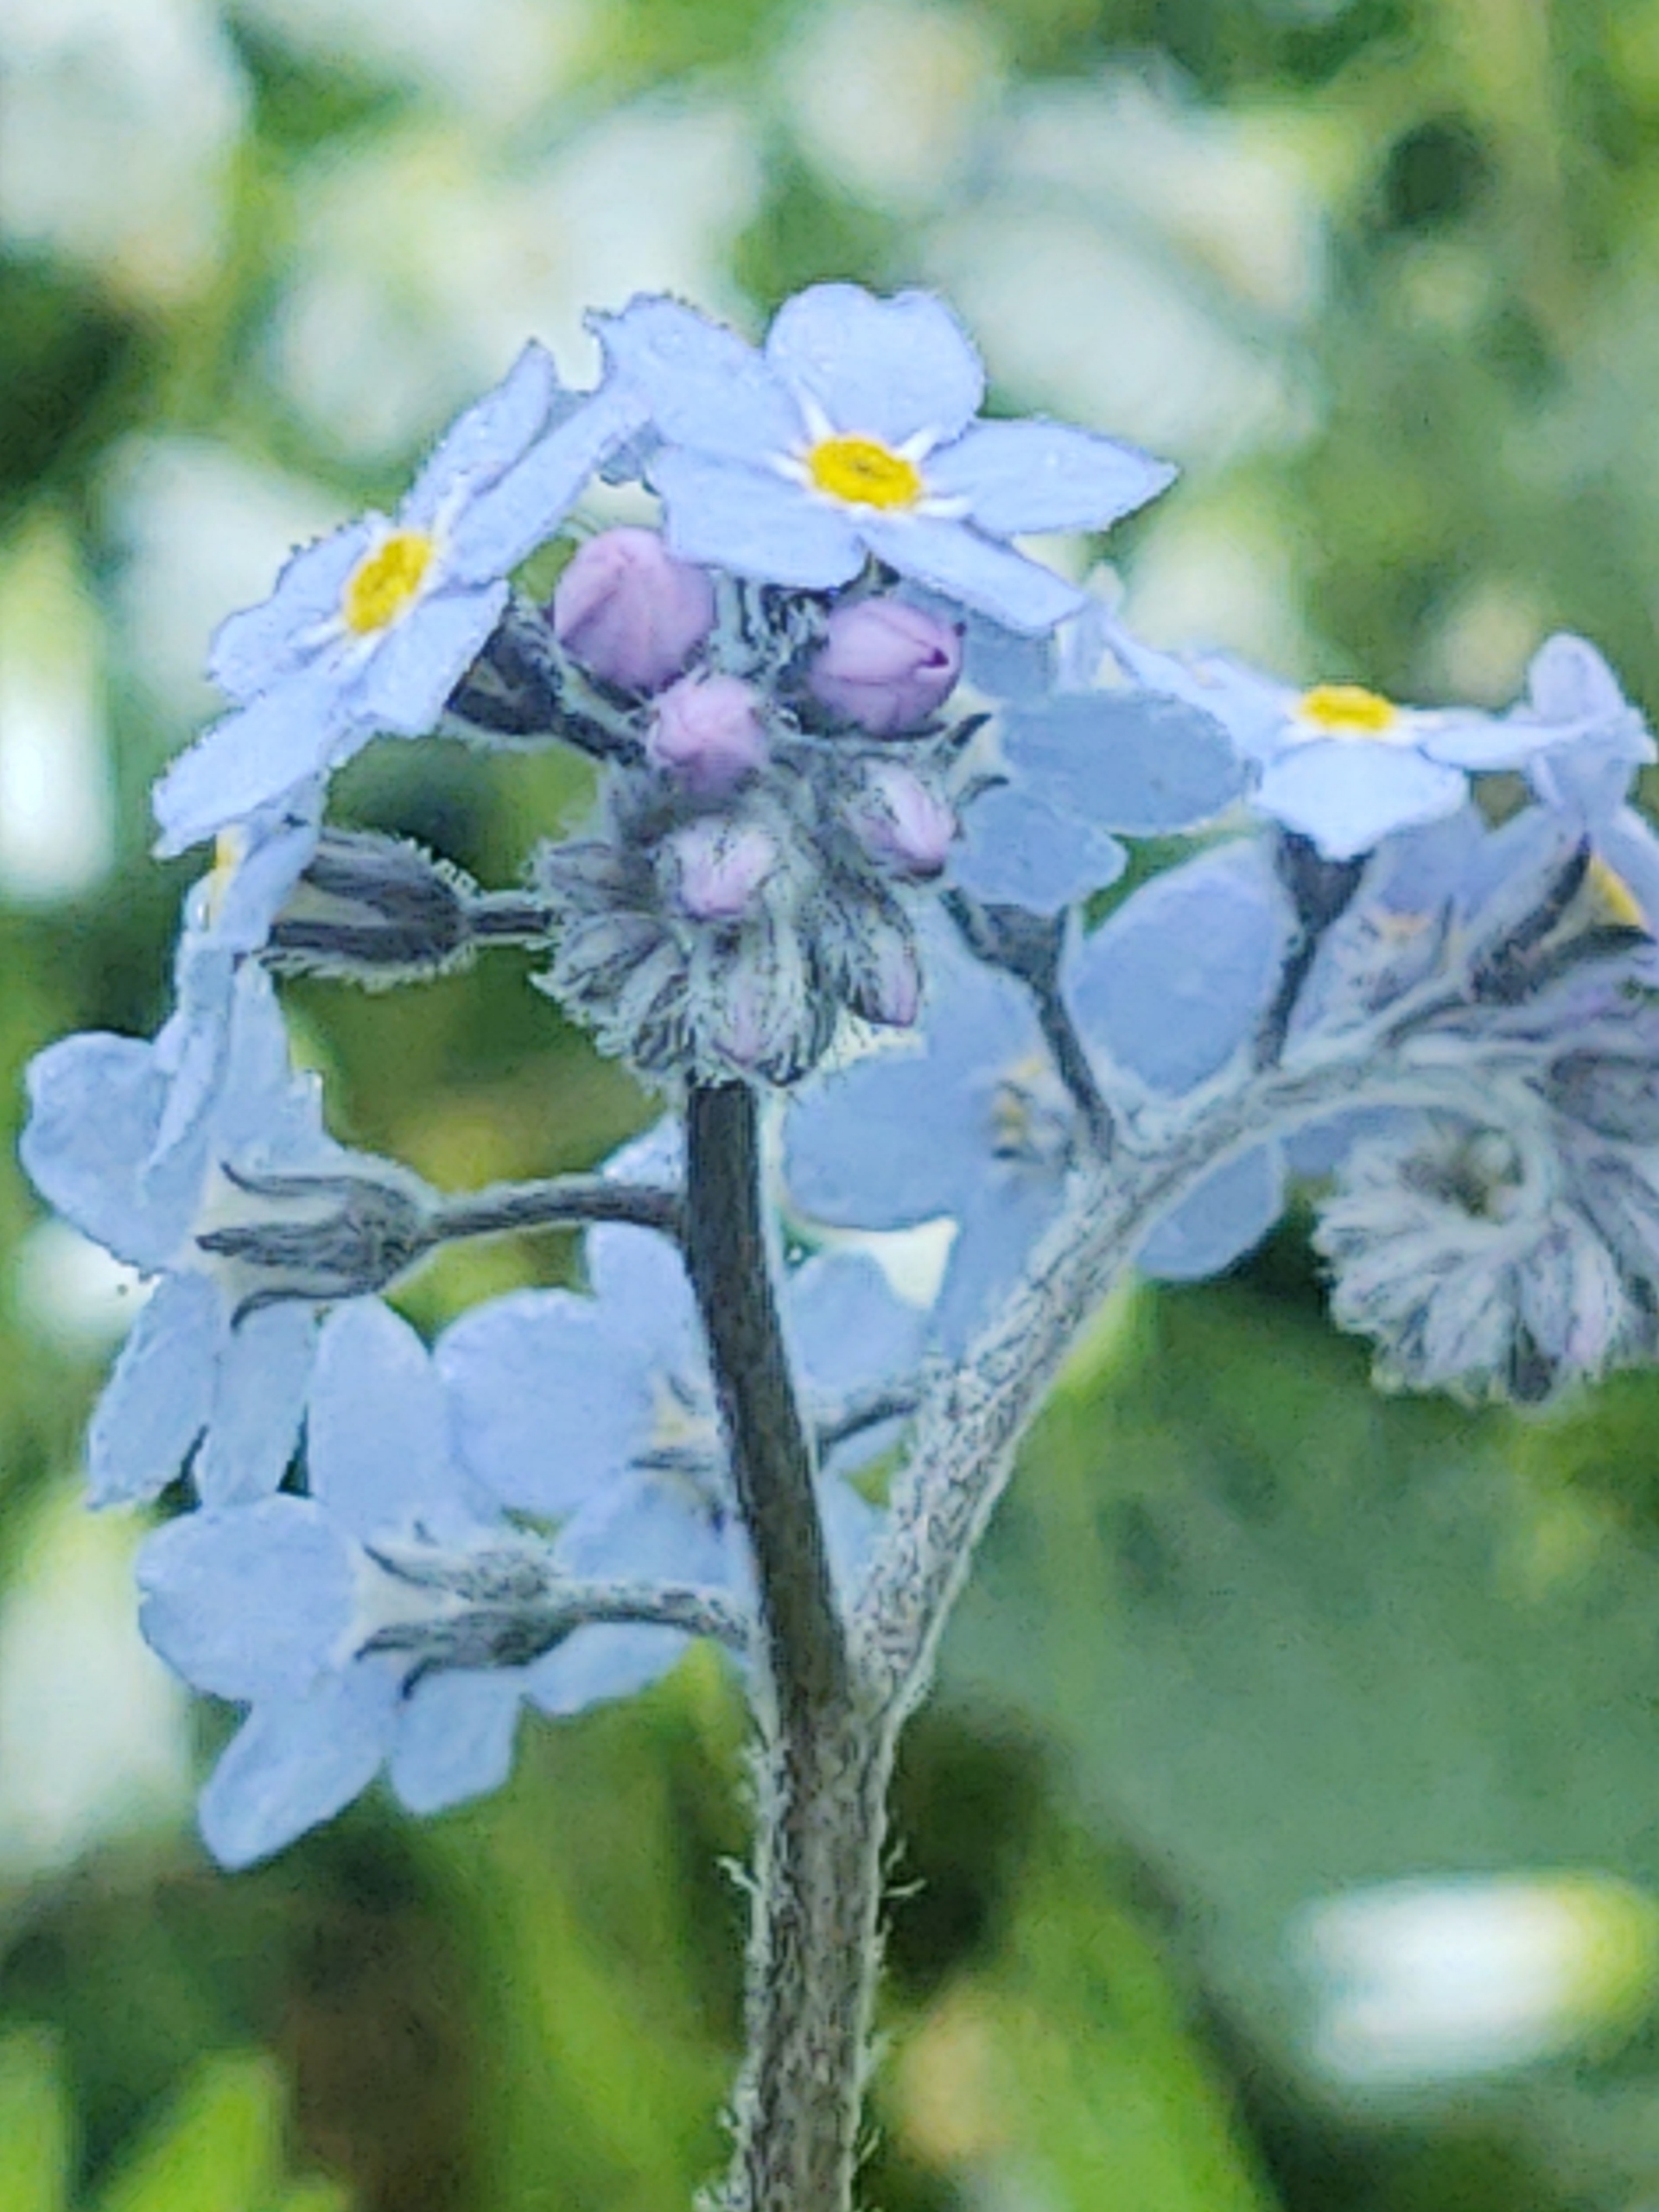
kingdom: Plantae
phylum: Tracheophyta
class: Magnoliopsida
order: Boraginales
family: Boraginaceae
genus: Myosotis
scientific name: Myosotis sylvatica
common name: Skov-forglemmigej
